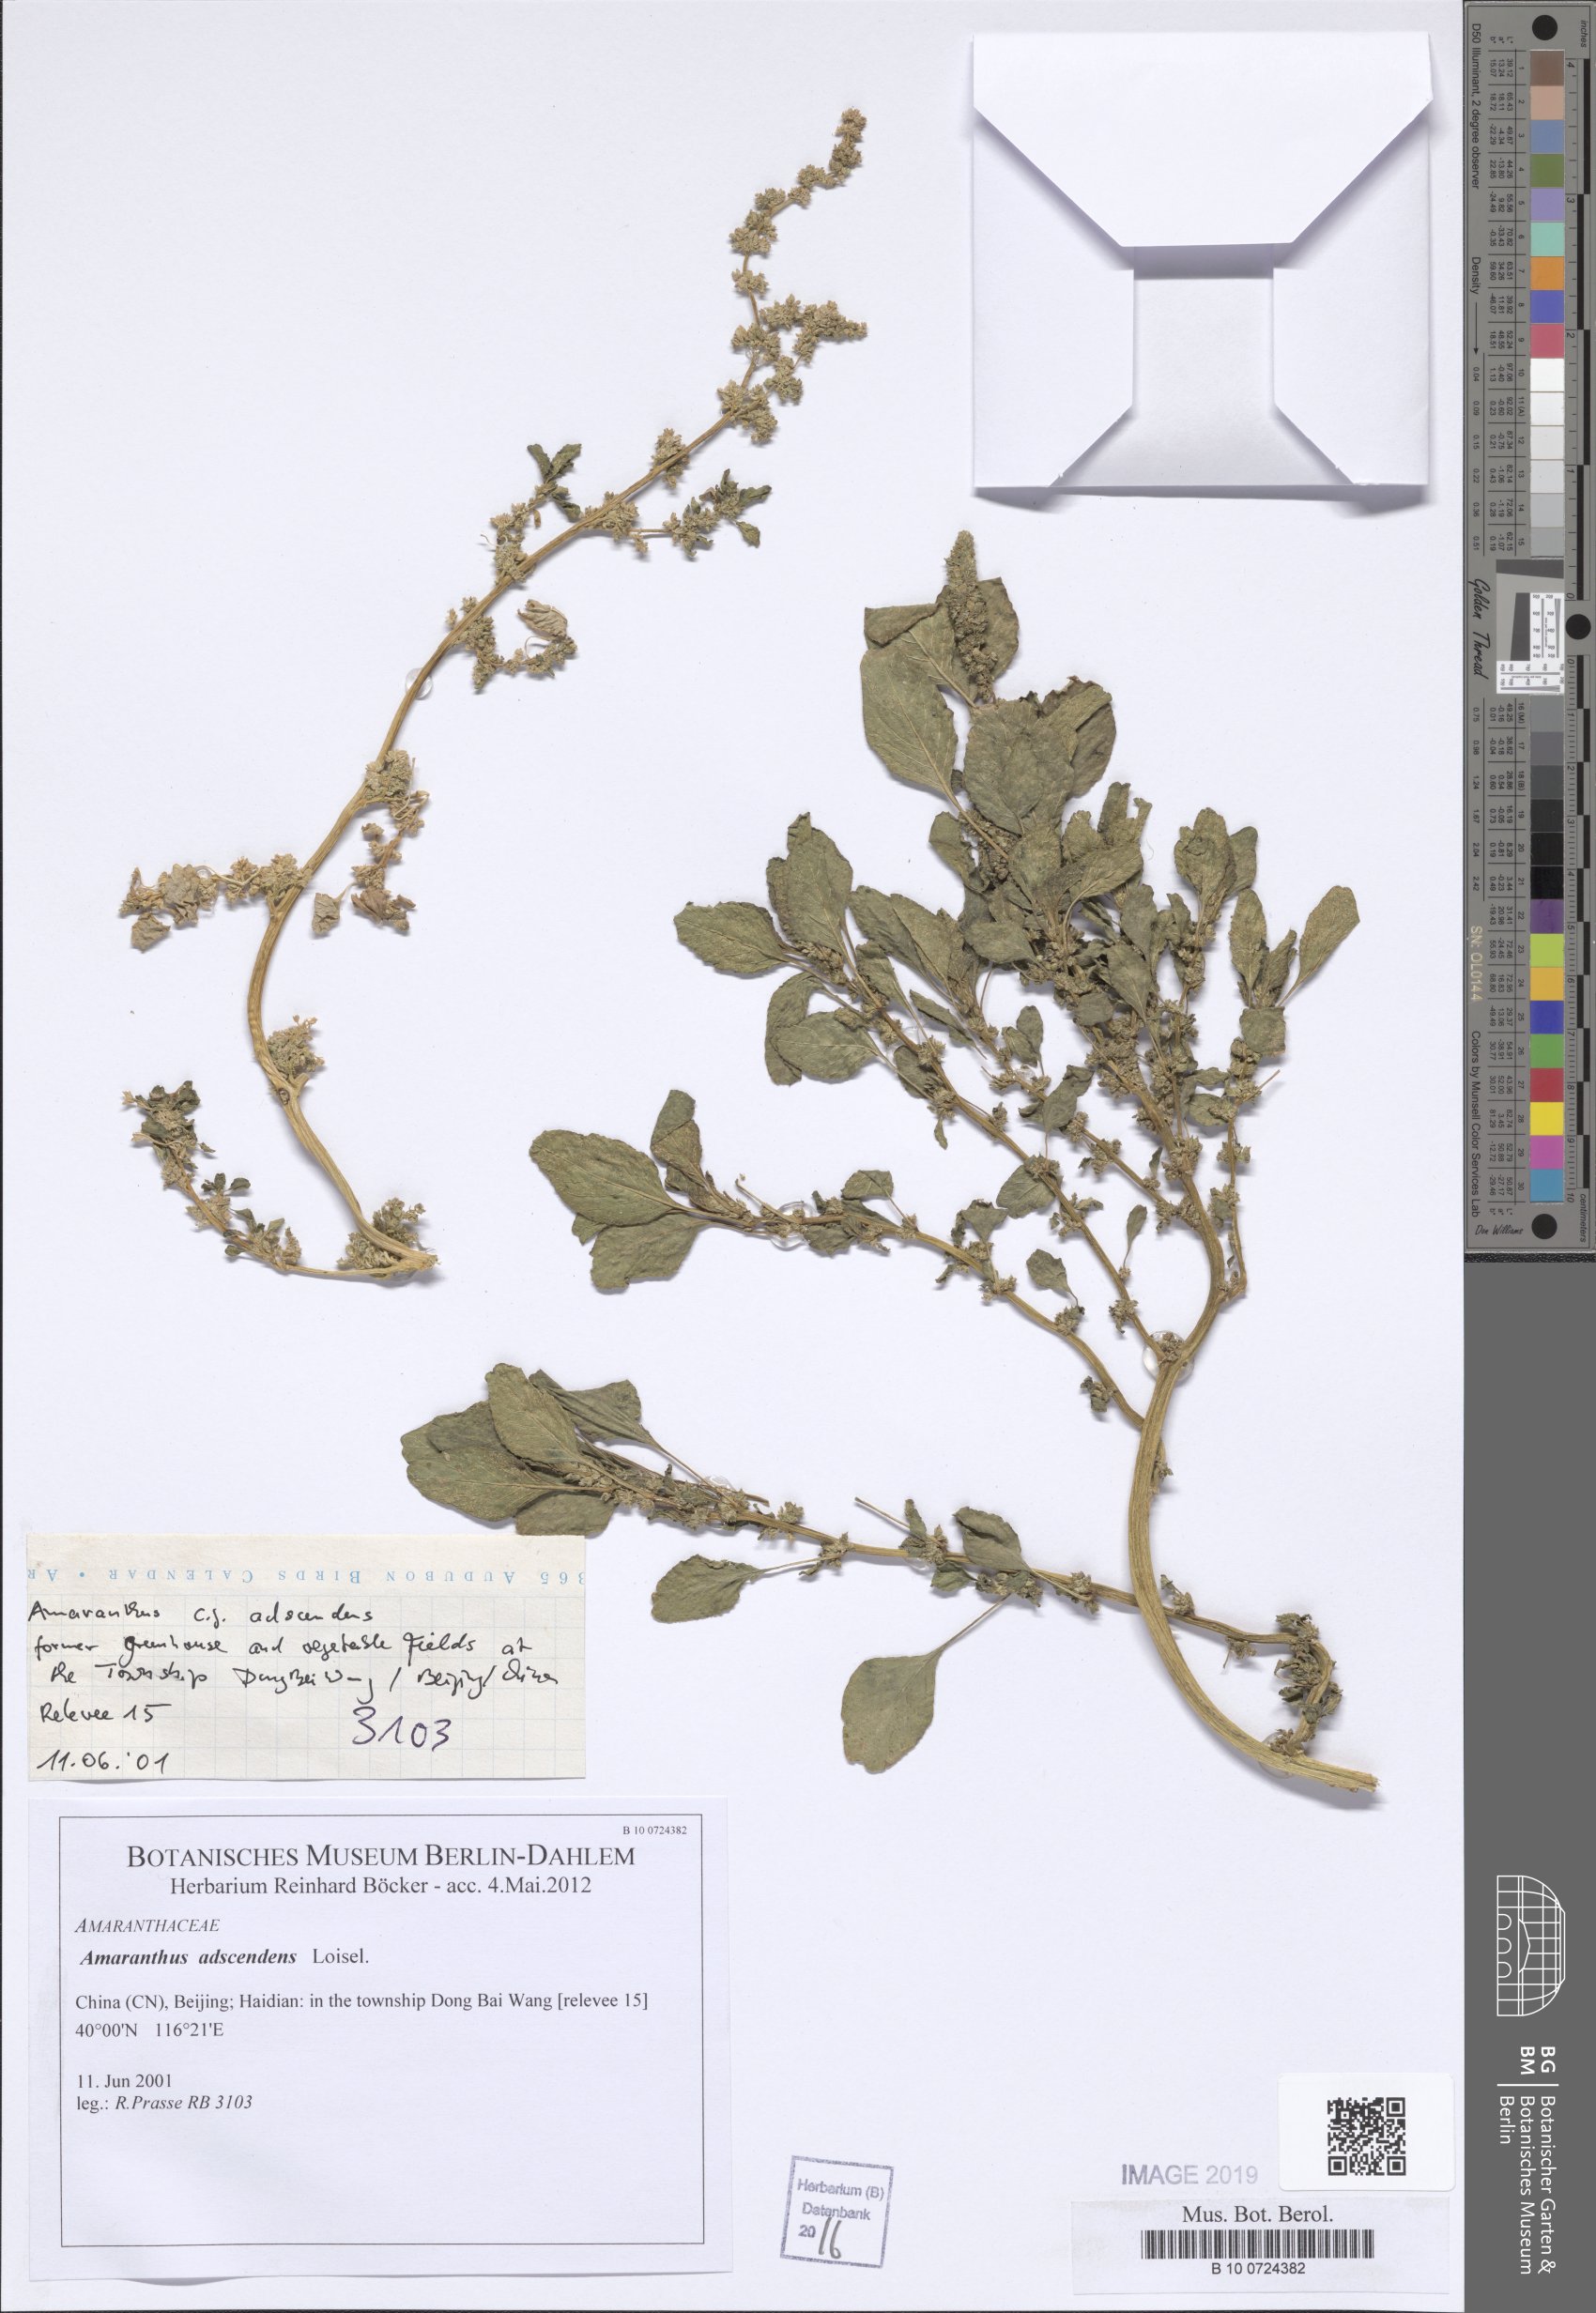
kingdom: Plantae
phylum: Tracheophyta
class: Magnoliopsida
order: Caryophyllales
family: Amaranthaceae
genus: Amaranthus
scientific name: Amaranthus adscendens
